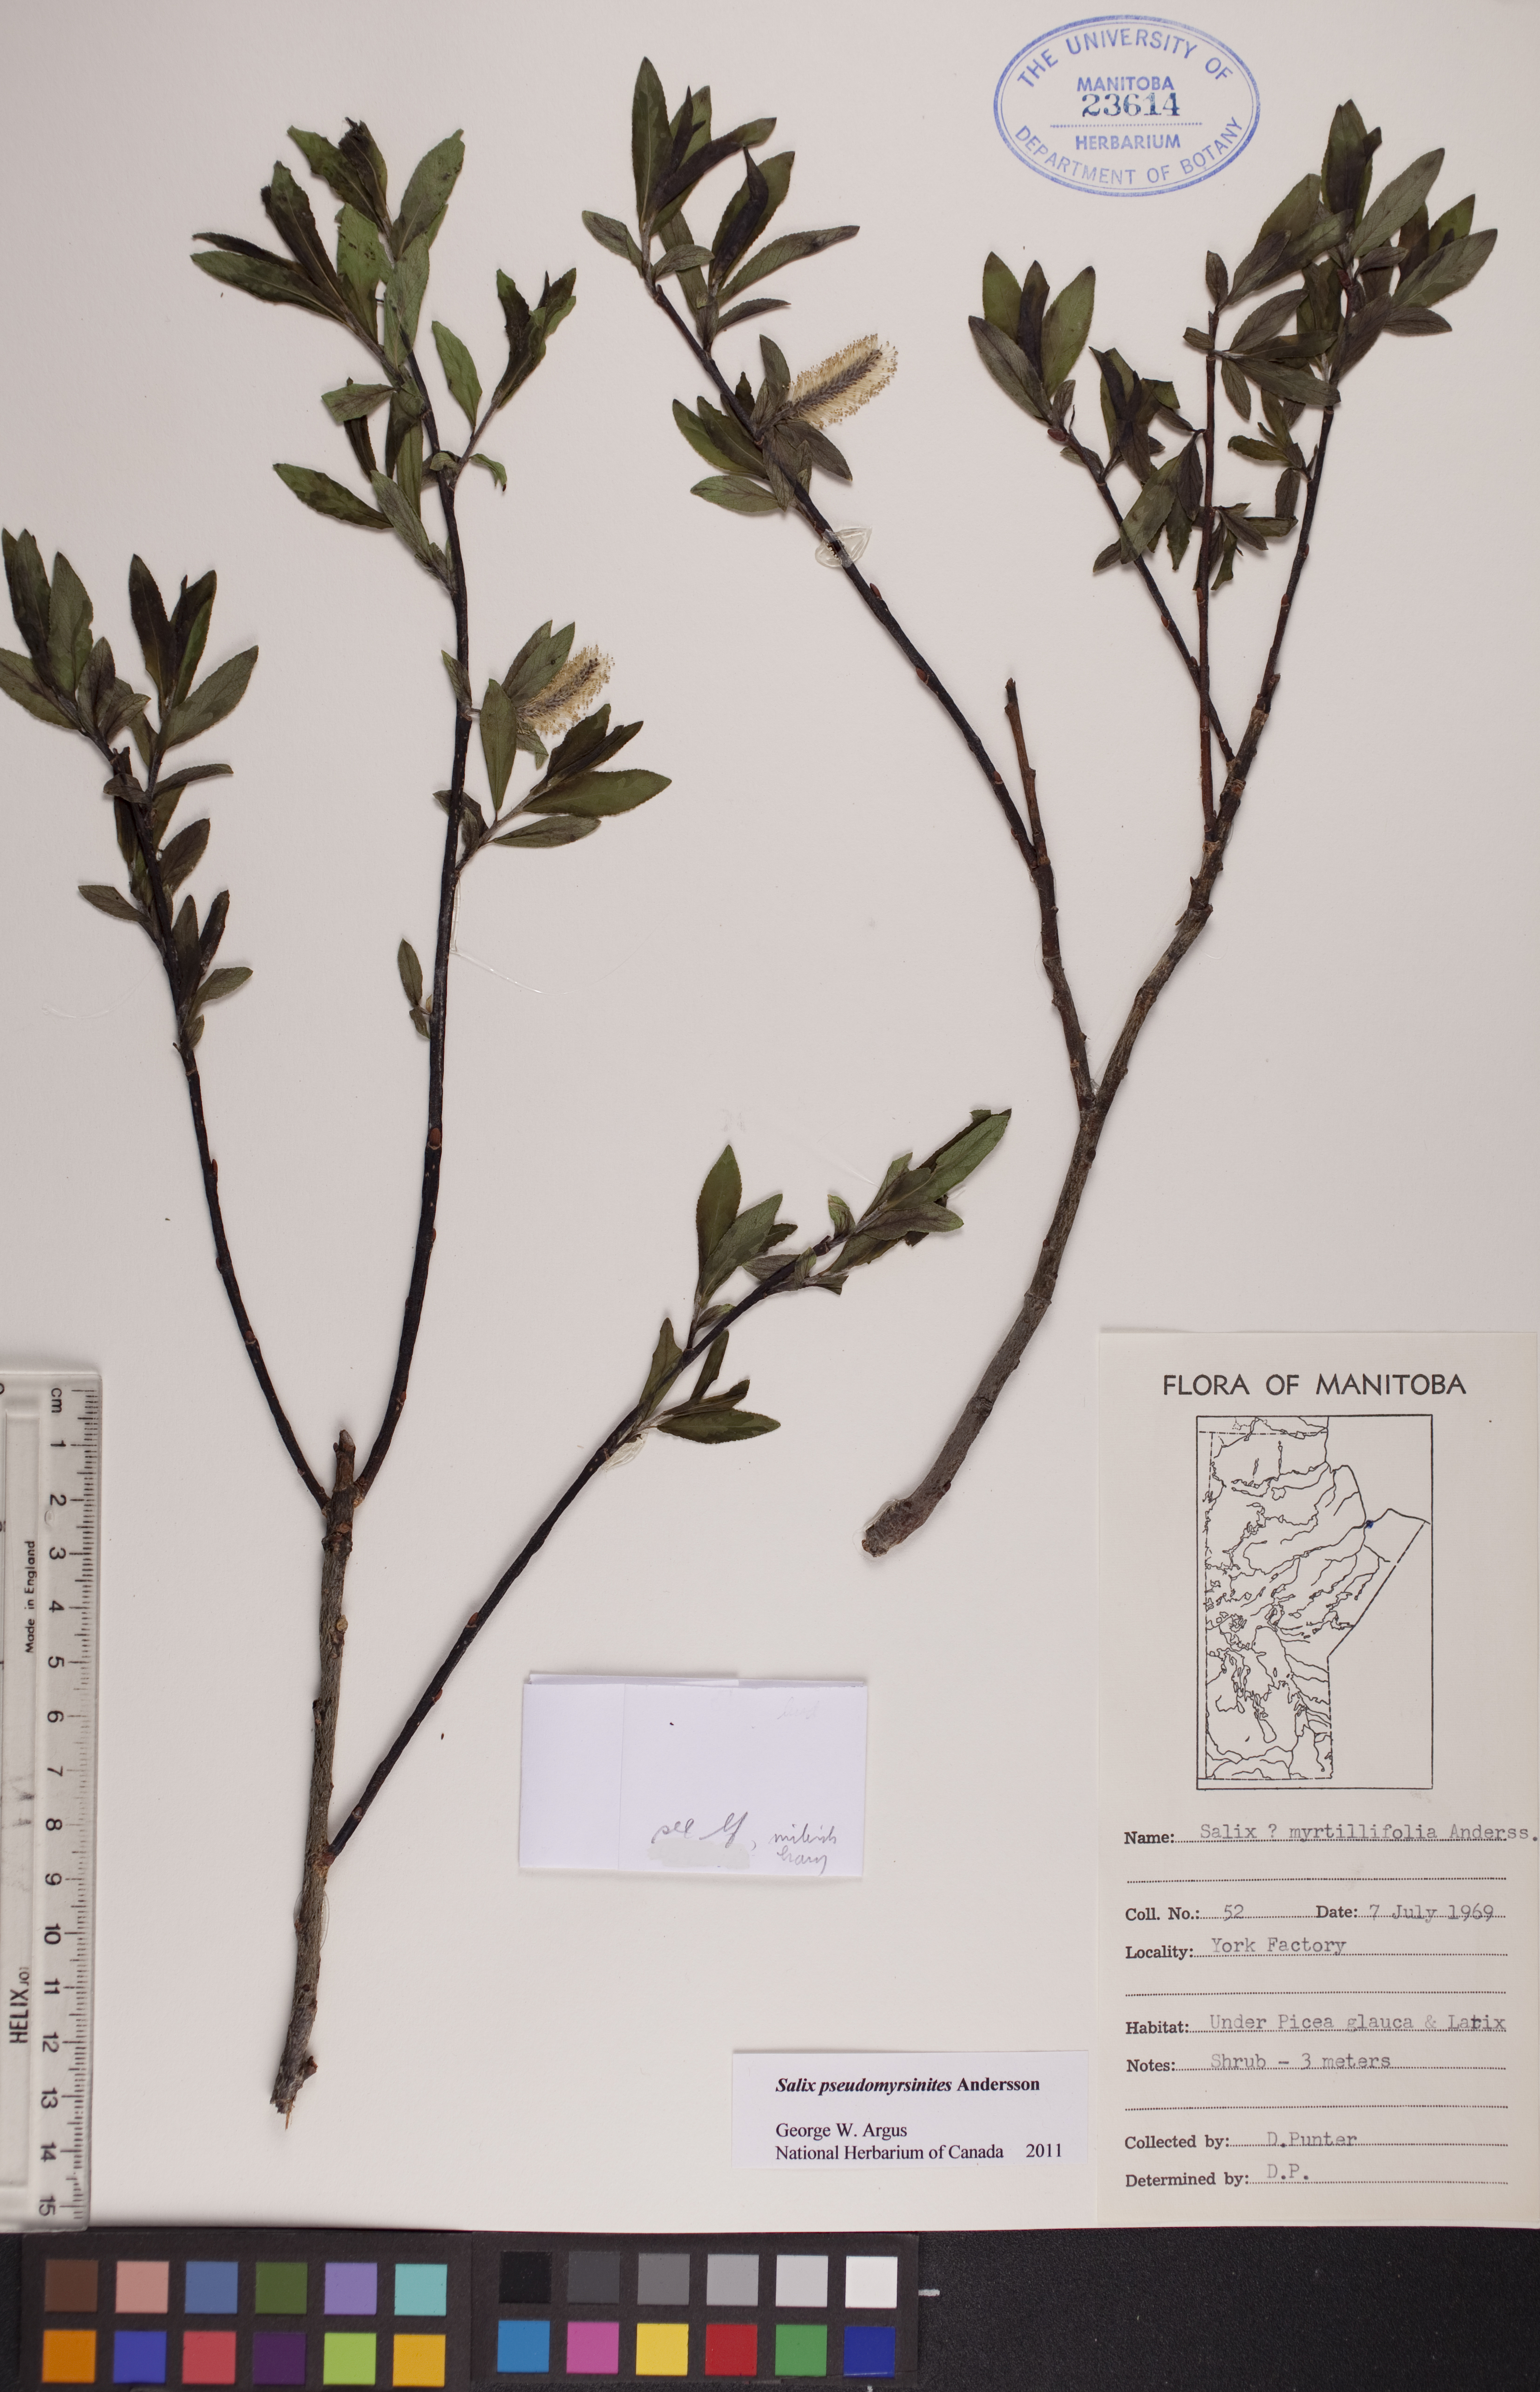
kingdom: Plantae
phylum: Tracheophyta
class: Magnoliopsida
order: Malpighiales
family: Salicaceae
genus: Salix
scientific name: Salix pseudomyrsinites
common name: Tall blueberry willow
